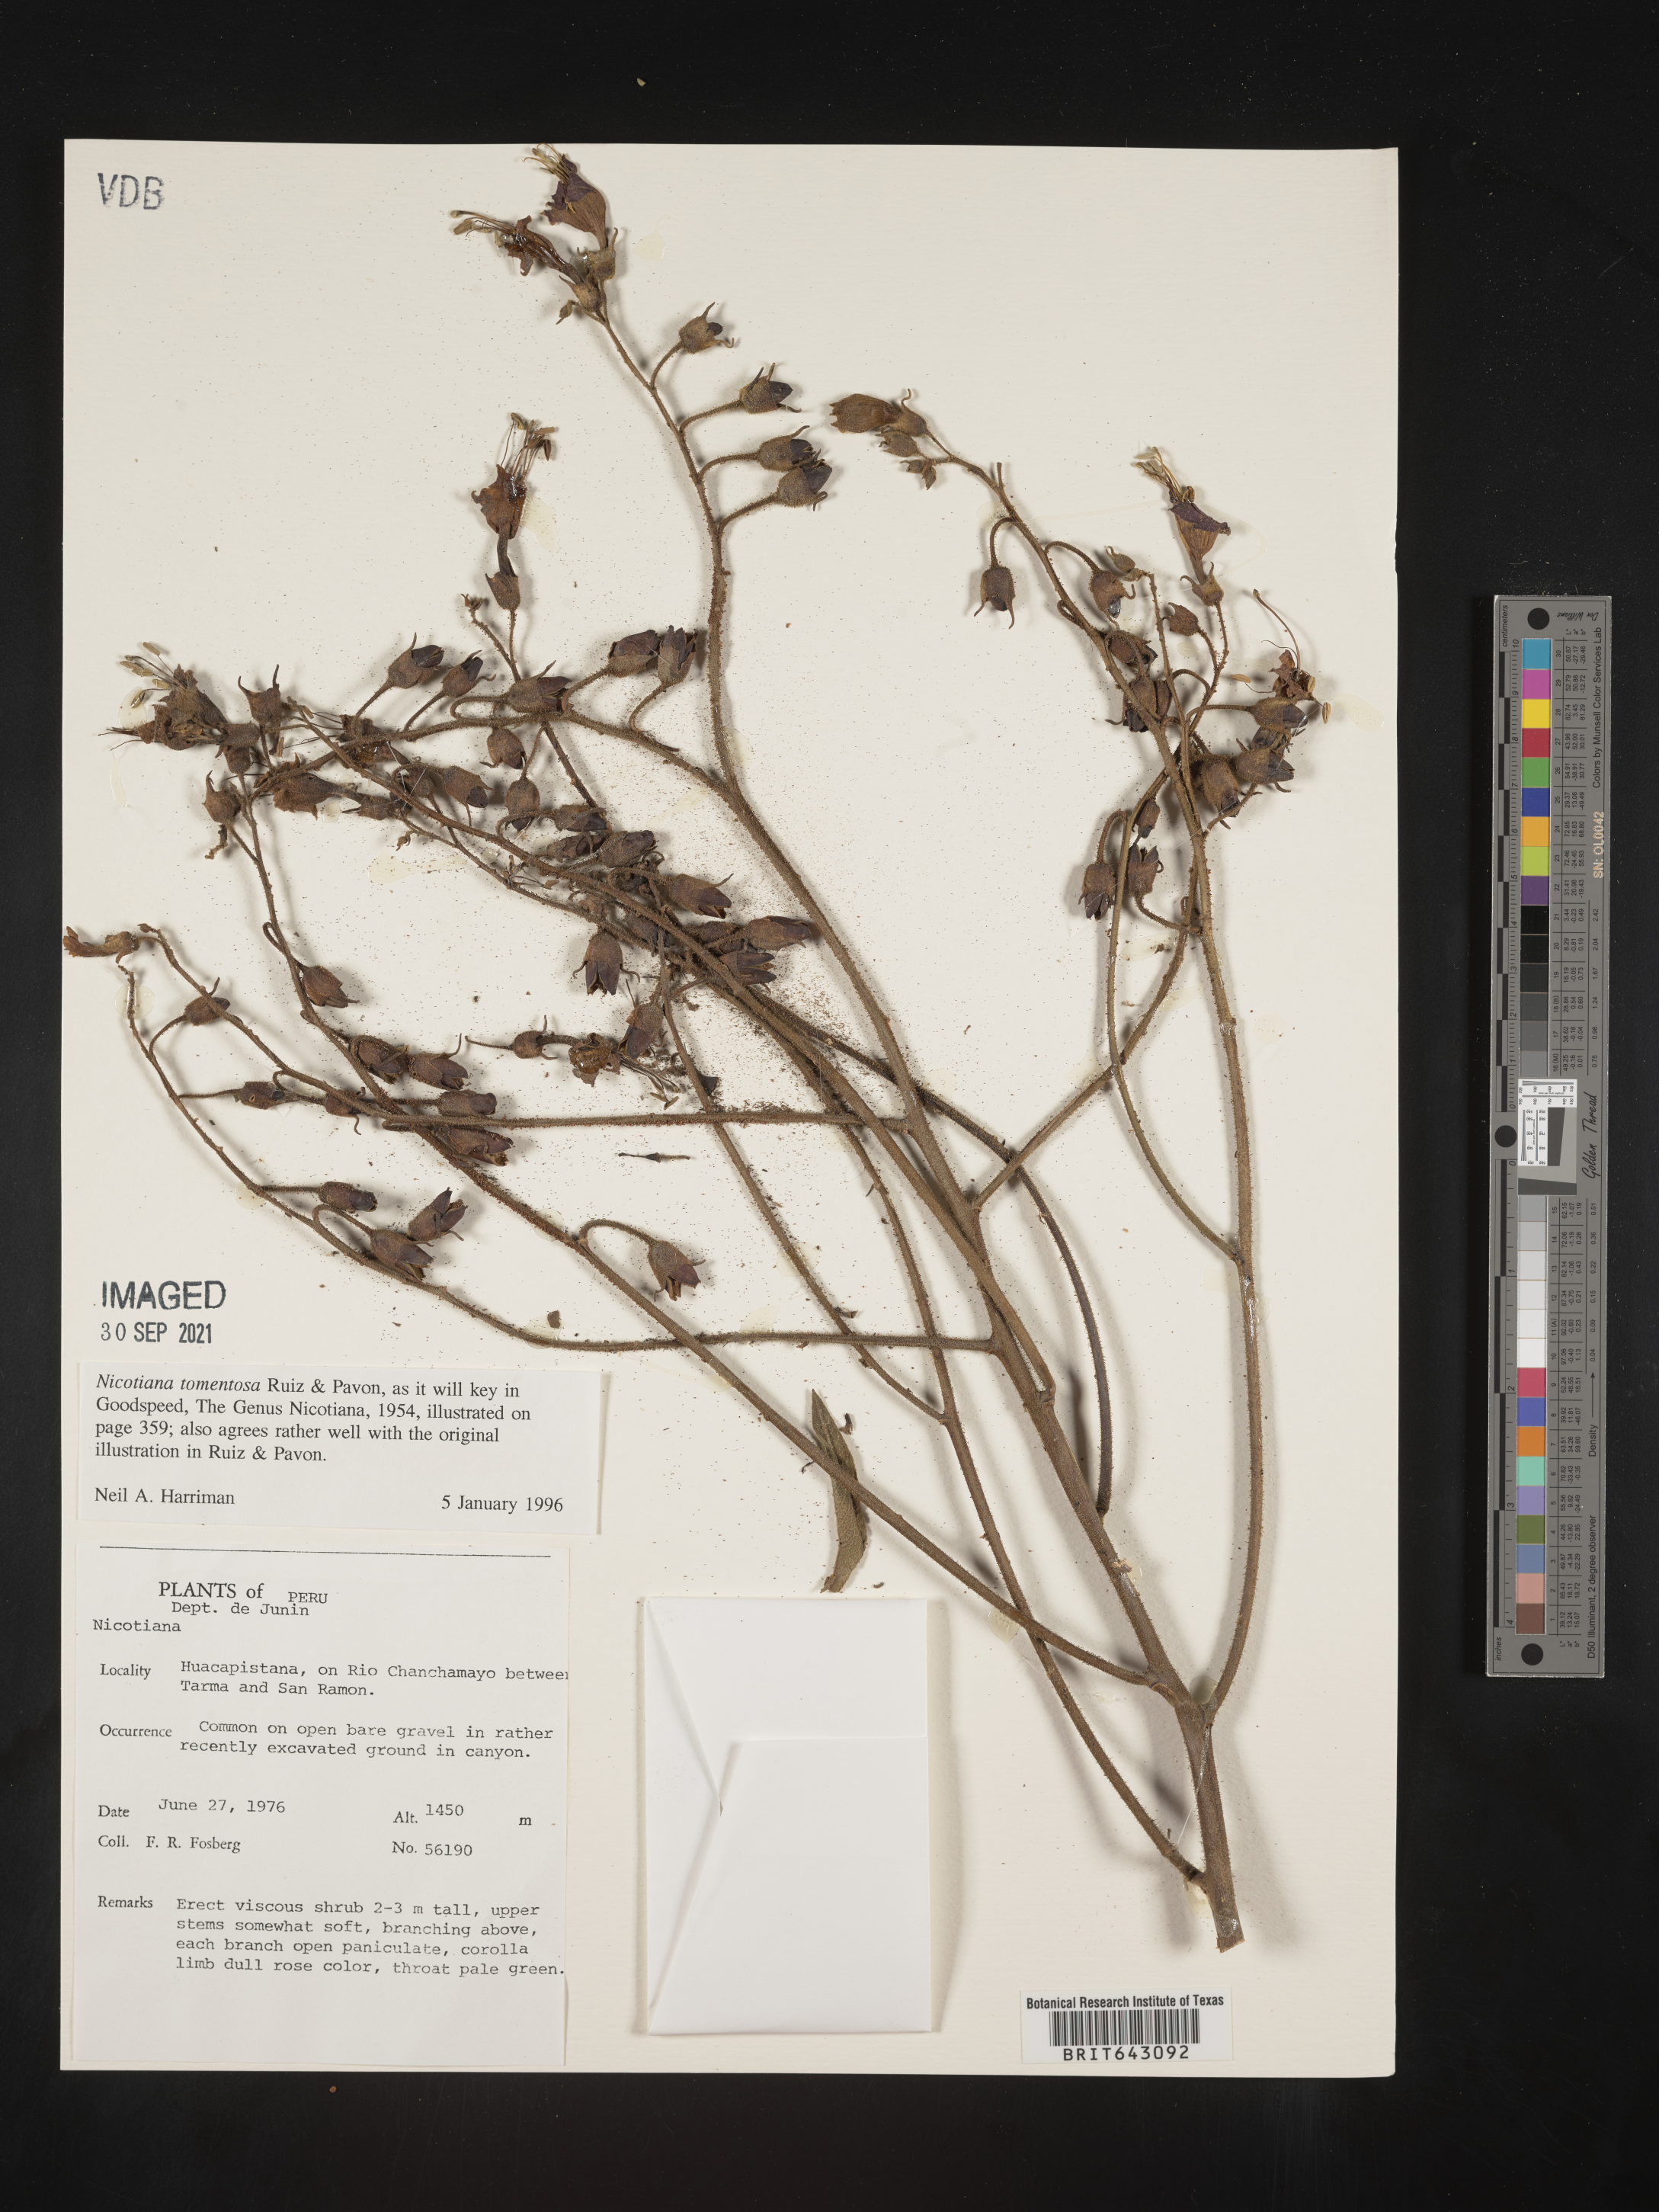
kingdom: Plantae
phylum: Tracheophyta
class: Magnoliopsida
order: Solanales
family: Solanaceae
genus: Nicotiana
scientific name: Nicotiana
